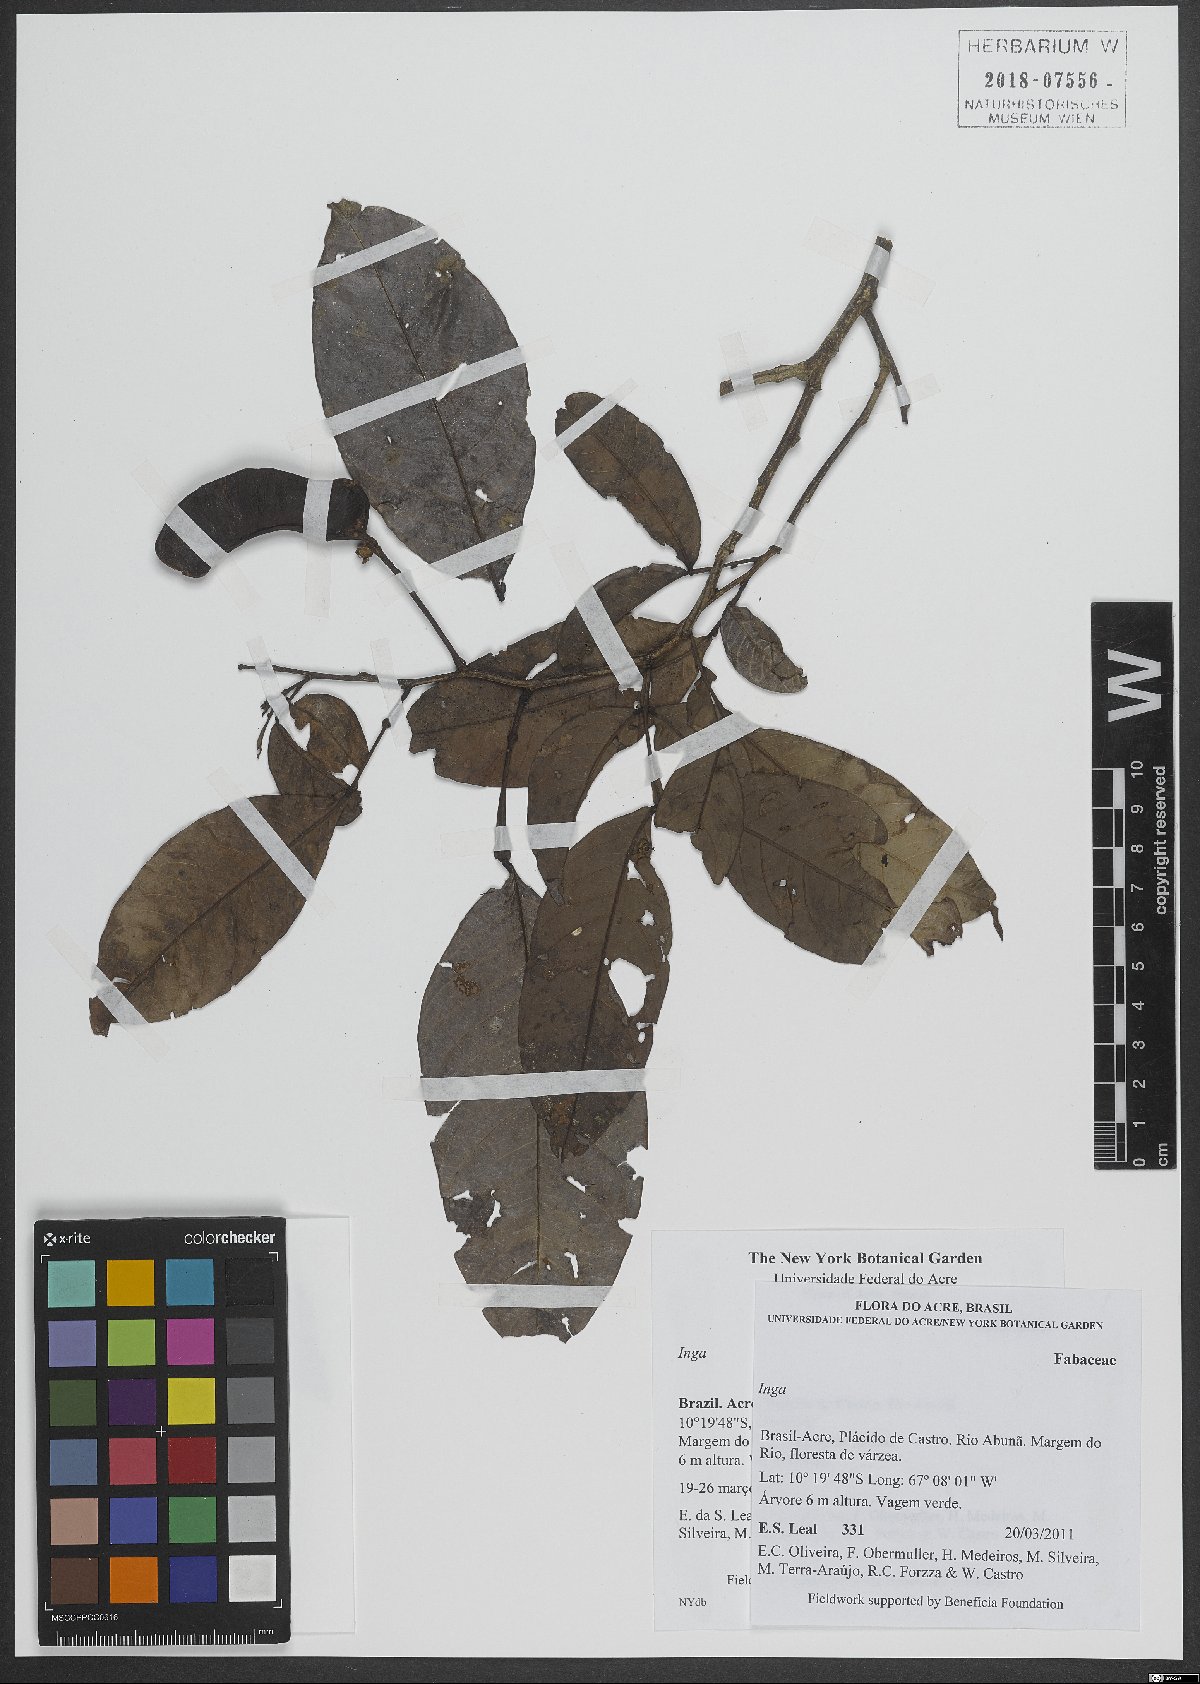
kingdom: Plantae
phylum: Tracheophyta
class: Magnoliopsida
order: Fabales
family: Fabaceae
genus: Inga
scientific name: Inga
